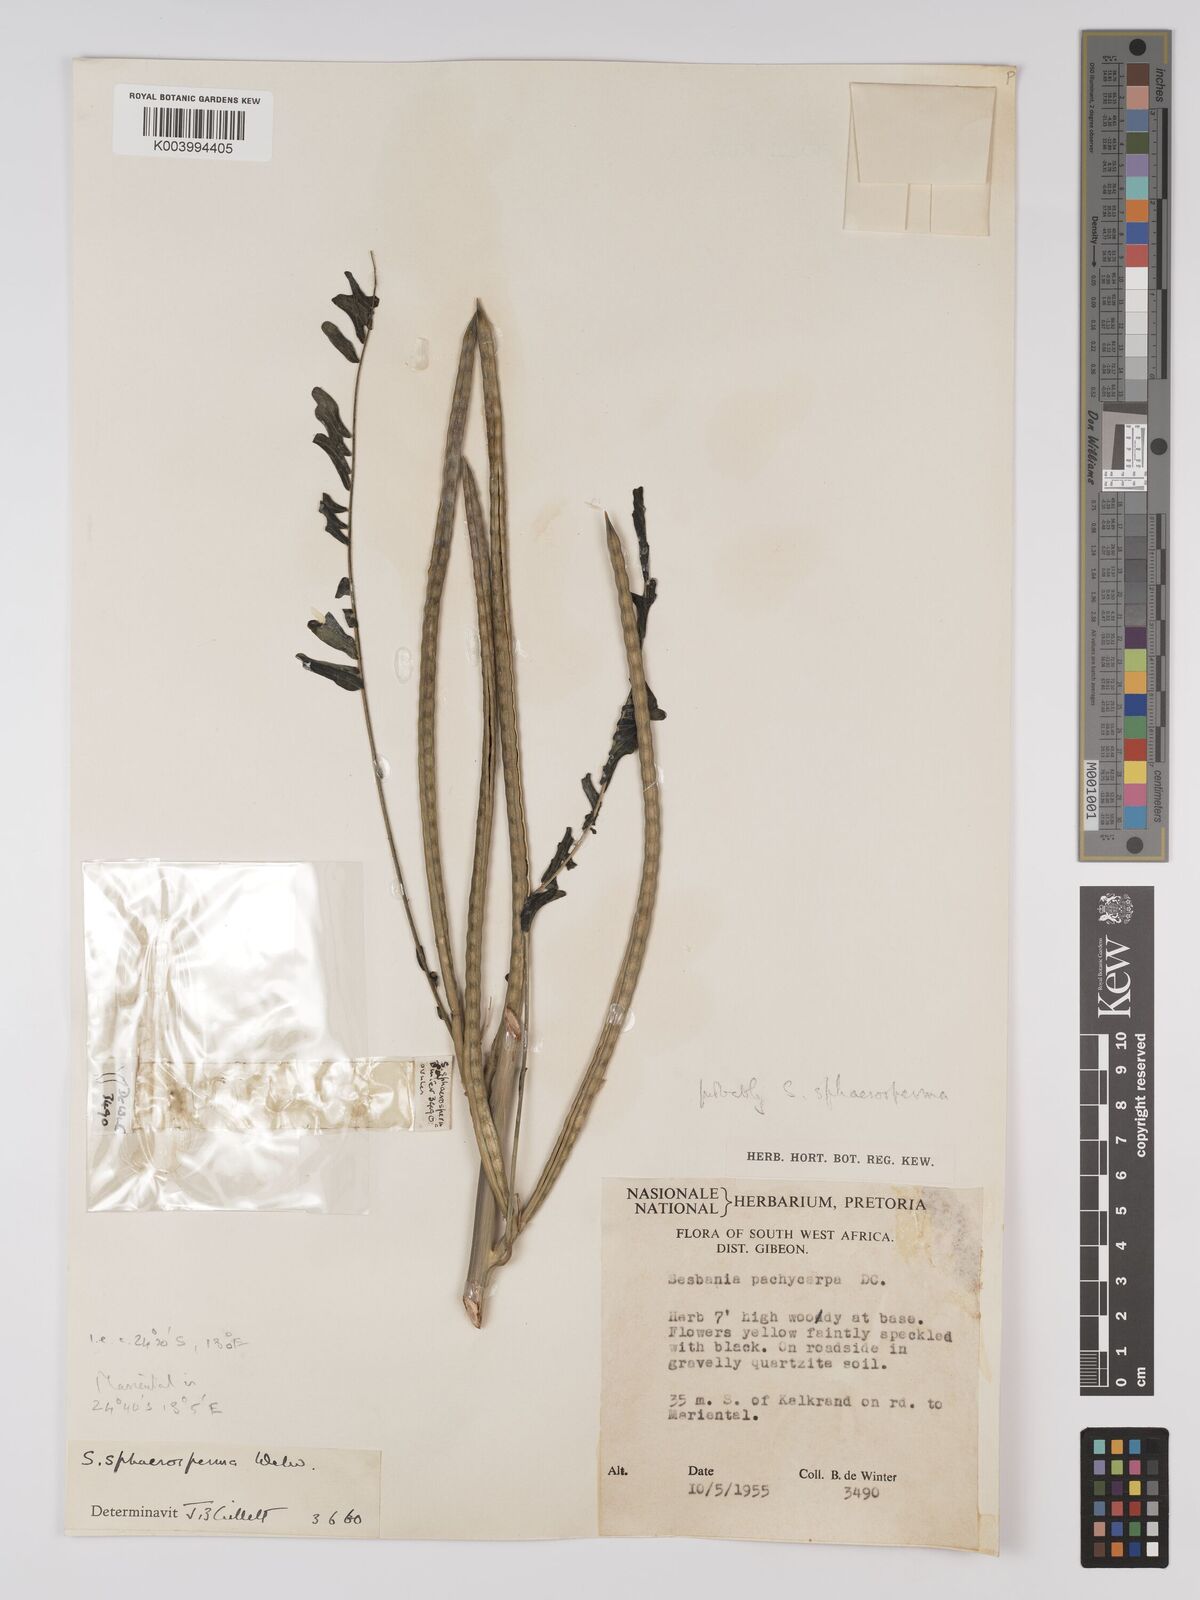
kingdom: Plantae
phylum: Tracheophyta
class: Magnoliopsida
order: Fabales
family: Fabaceae
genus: Sesbania
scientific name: Sesbania sphaerocarpa
